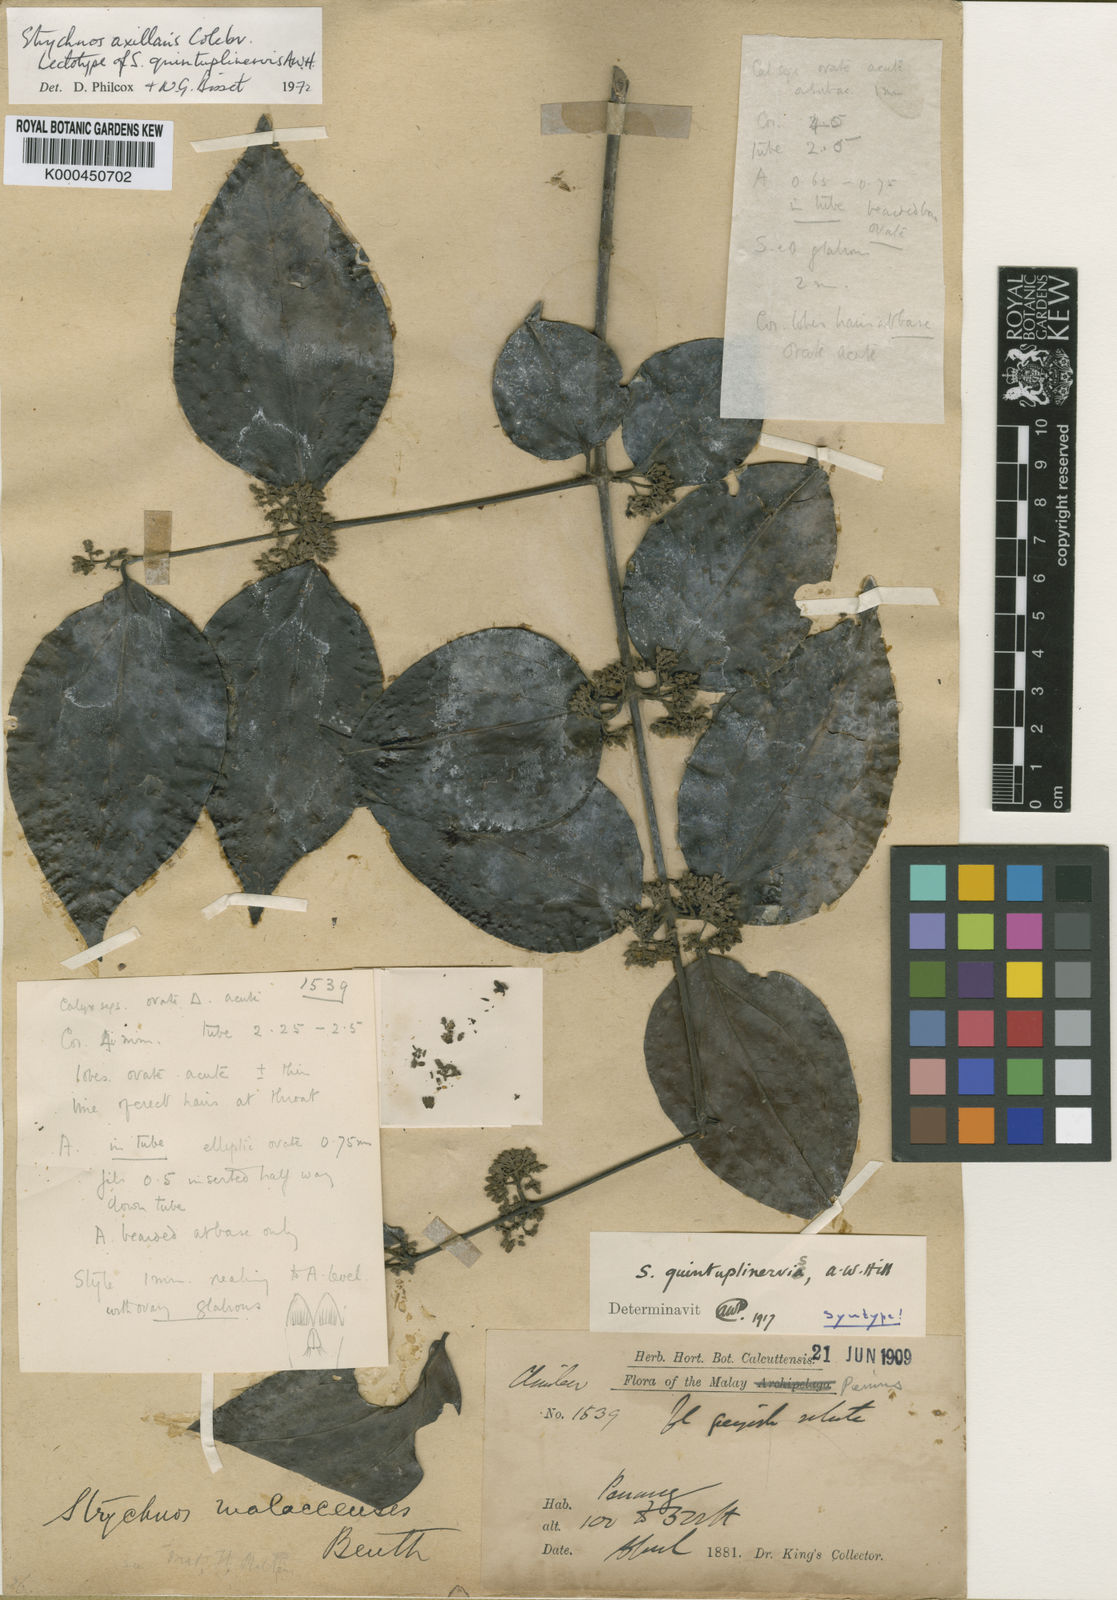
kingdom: Plantae
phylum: Tracheophyta
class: Magnoliopsida
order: Gentianales
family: Loganiaceae
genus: Strychnos
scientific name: Strychnos axillaris
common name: Strychninebush
